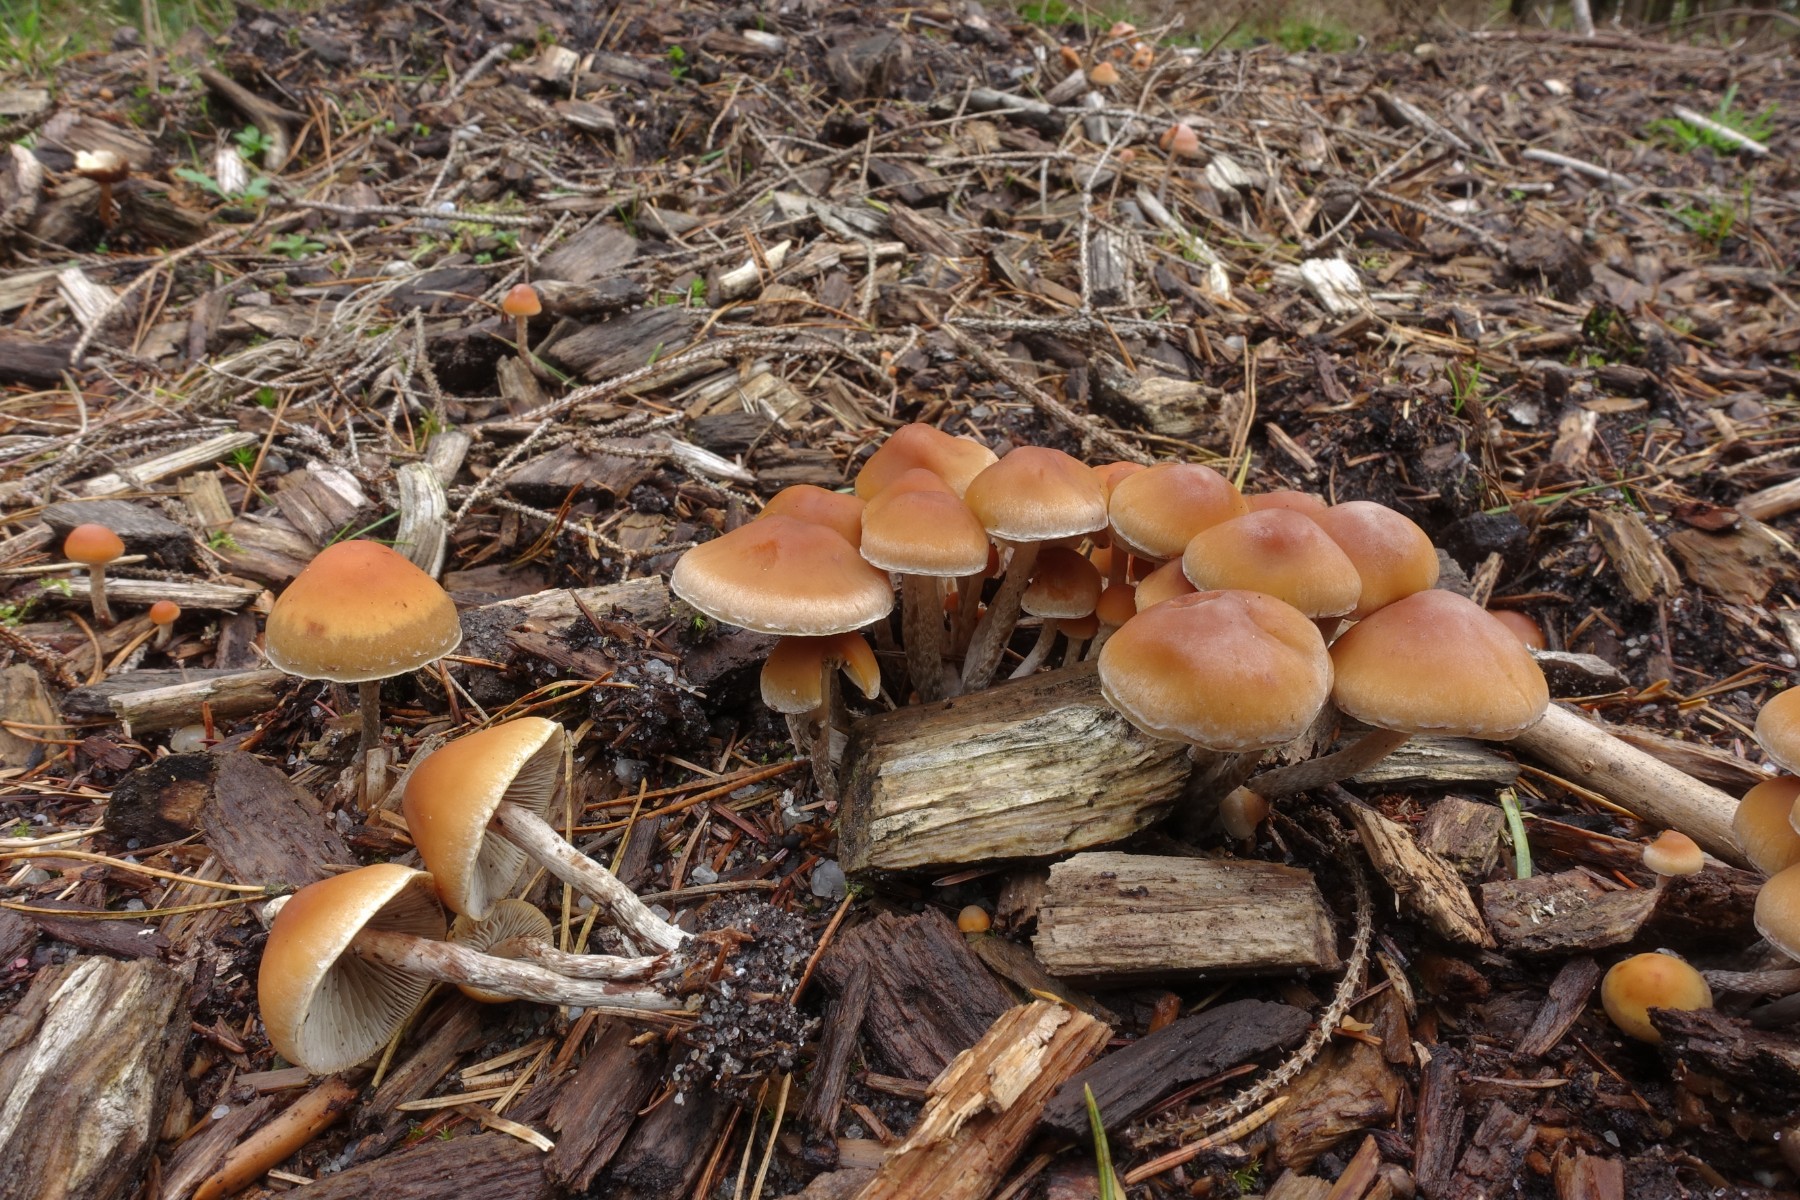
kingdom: Fungi
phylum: Basidiomycota
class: Agaricomycetes
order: Agaricales
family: Strophariaceae
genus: Hypholoma
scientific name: Hypholoma marginatum
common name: enlig svovlhat
